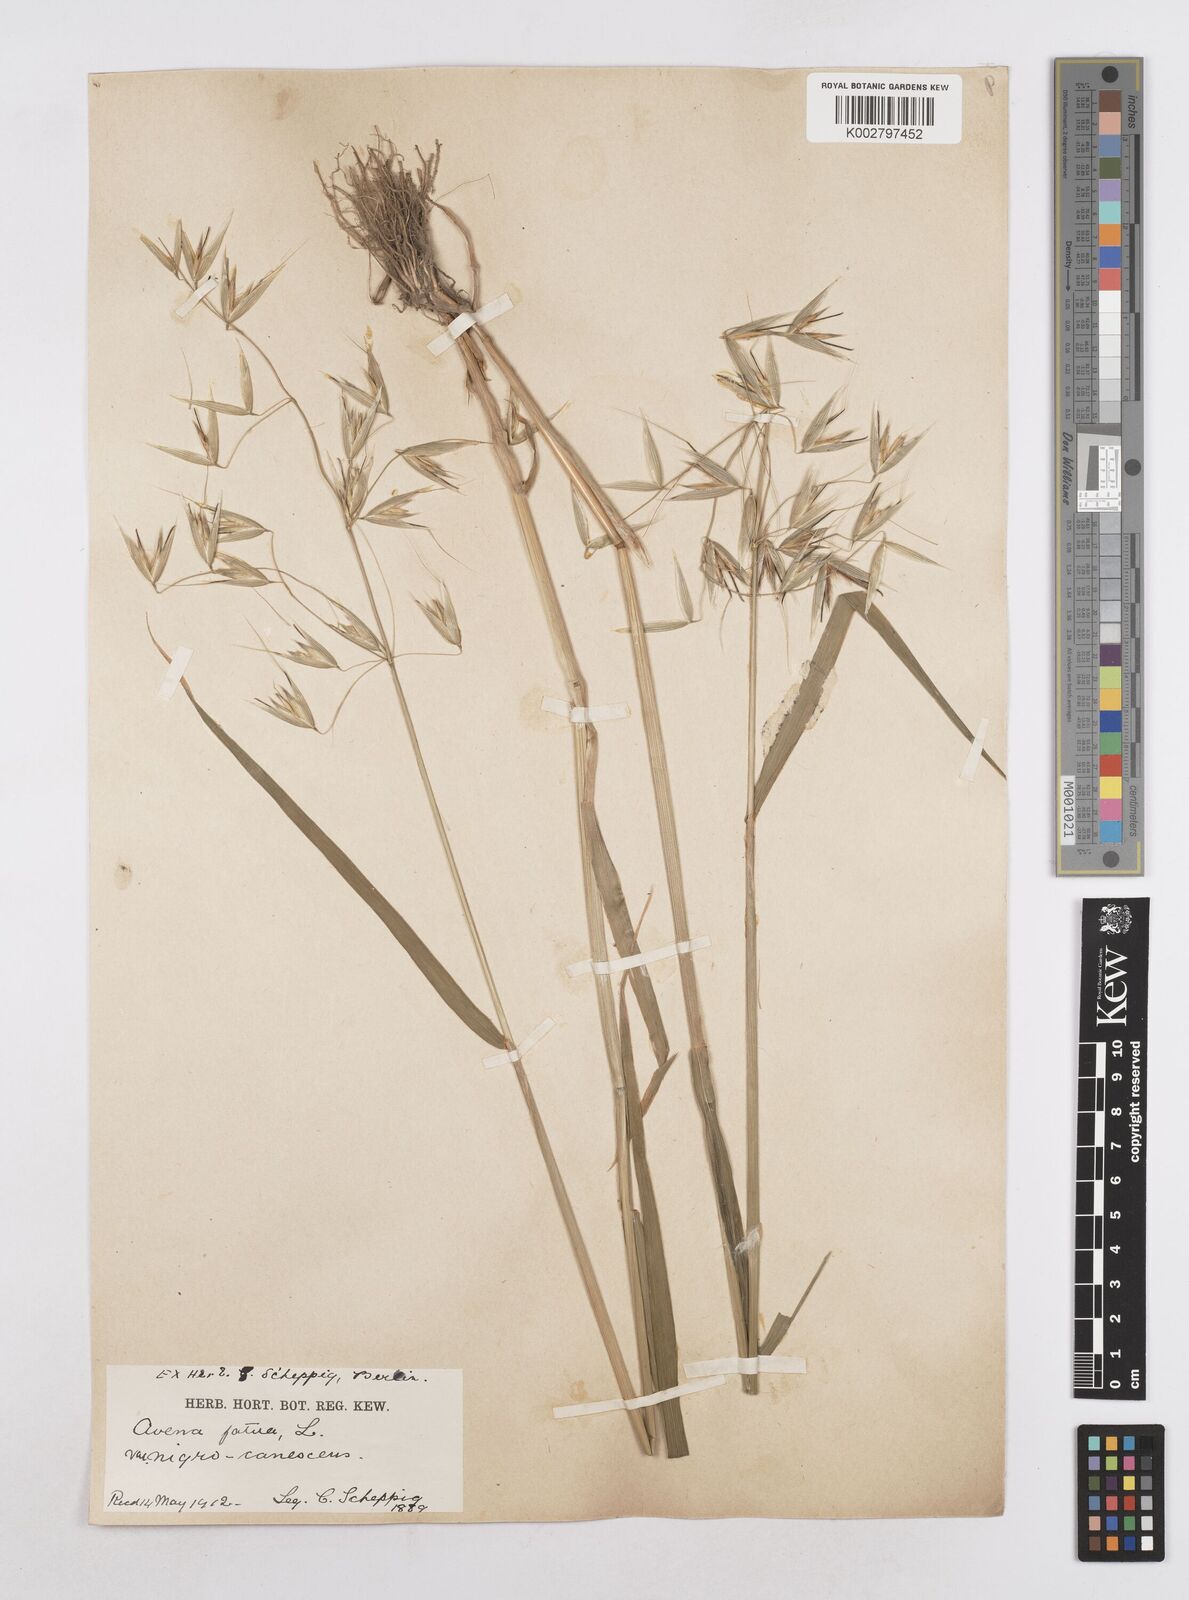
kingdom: Plantae
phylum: Tracheophyta
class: Liliopsida
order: Poales
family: Poaceae
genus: Avena
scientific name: Avena fatua
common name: Wild oat
